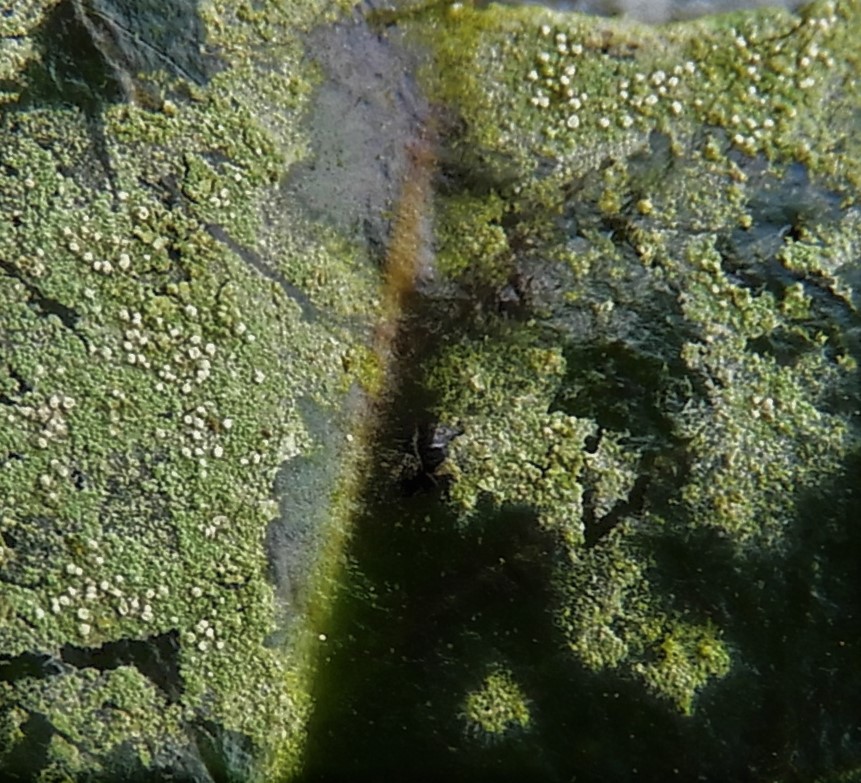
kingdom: Fungi
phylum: Ascomycota
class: Lecanoromycetes
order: Lecanorales
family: Byssolomataceae
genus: Fellhanera
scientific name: Fellhanera subtilis
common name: nåle-tallerkenlav
